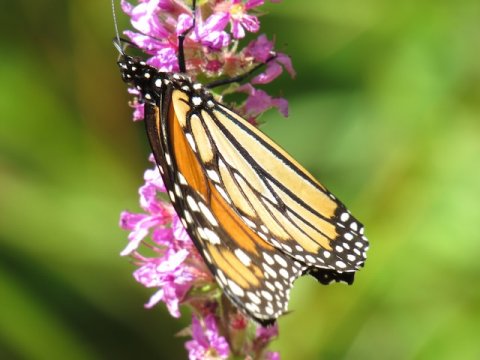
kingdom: Animalia
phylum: Arthropoda
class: Insecta
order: Lepidoptera
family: Nymphalidae
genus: Danaus
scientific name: Danaus plexippus
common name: Monarch
